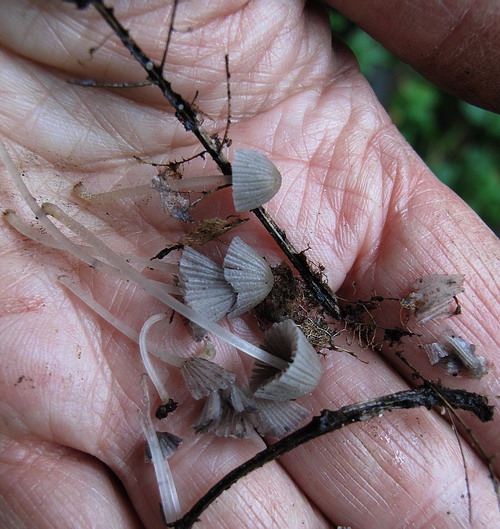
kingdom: Fungi
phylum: Basidiomycota
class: Agaricomycetes
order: Agaricales
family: Psathyrellaceae
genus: Coprinellus
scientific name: Coprinellus disseminatus
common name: bredsået blækhat
